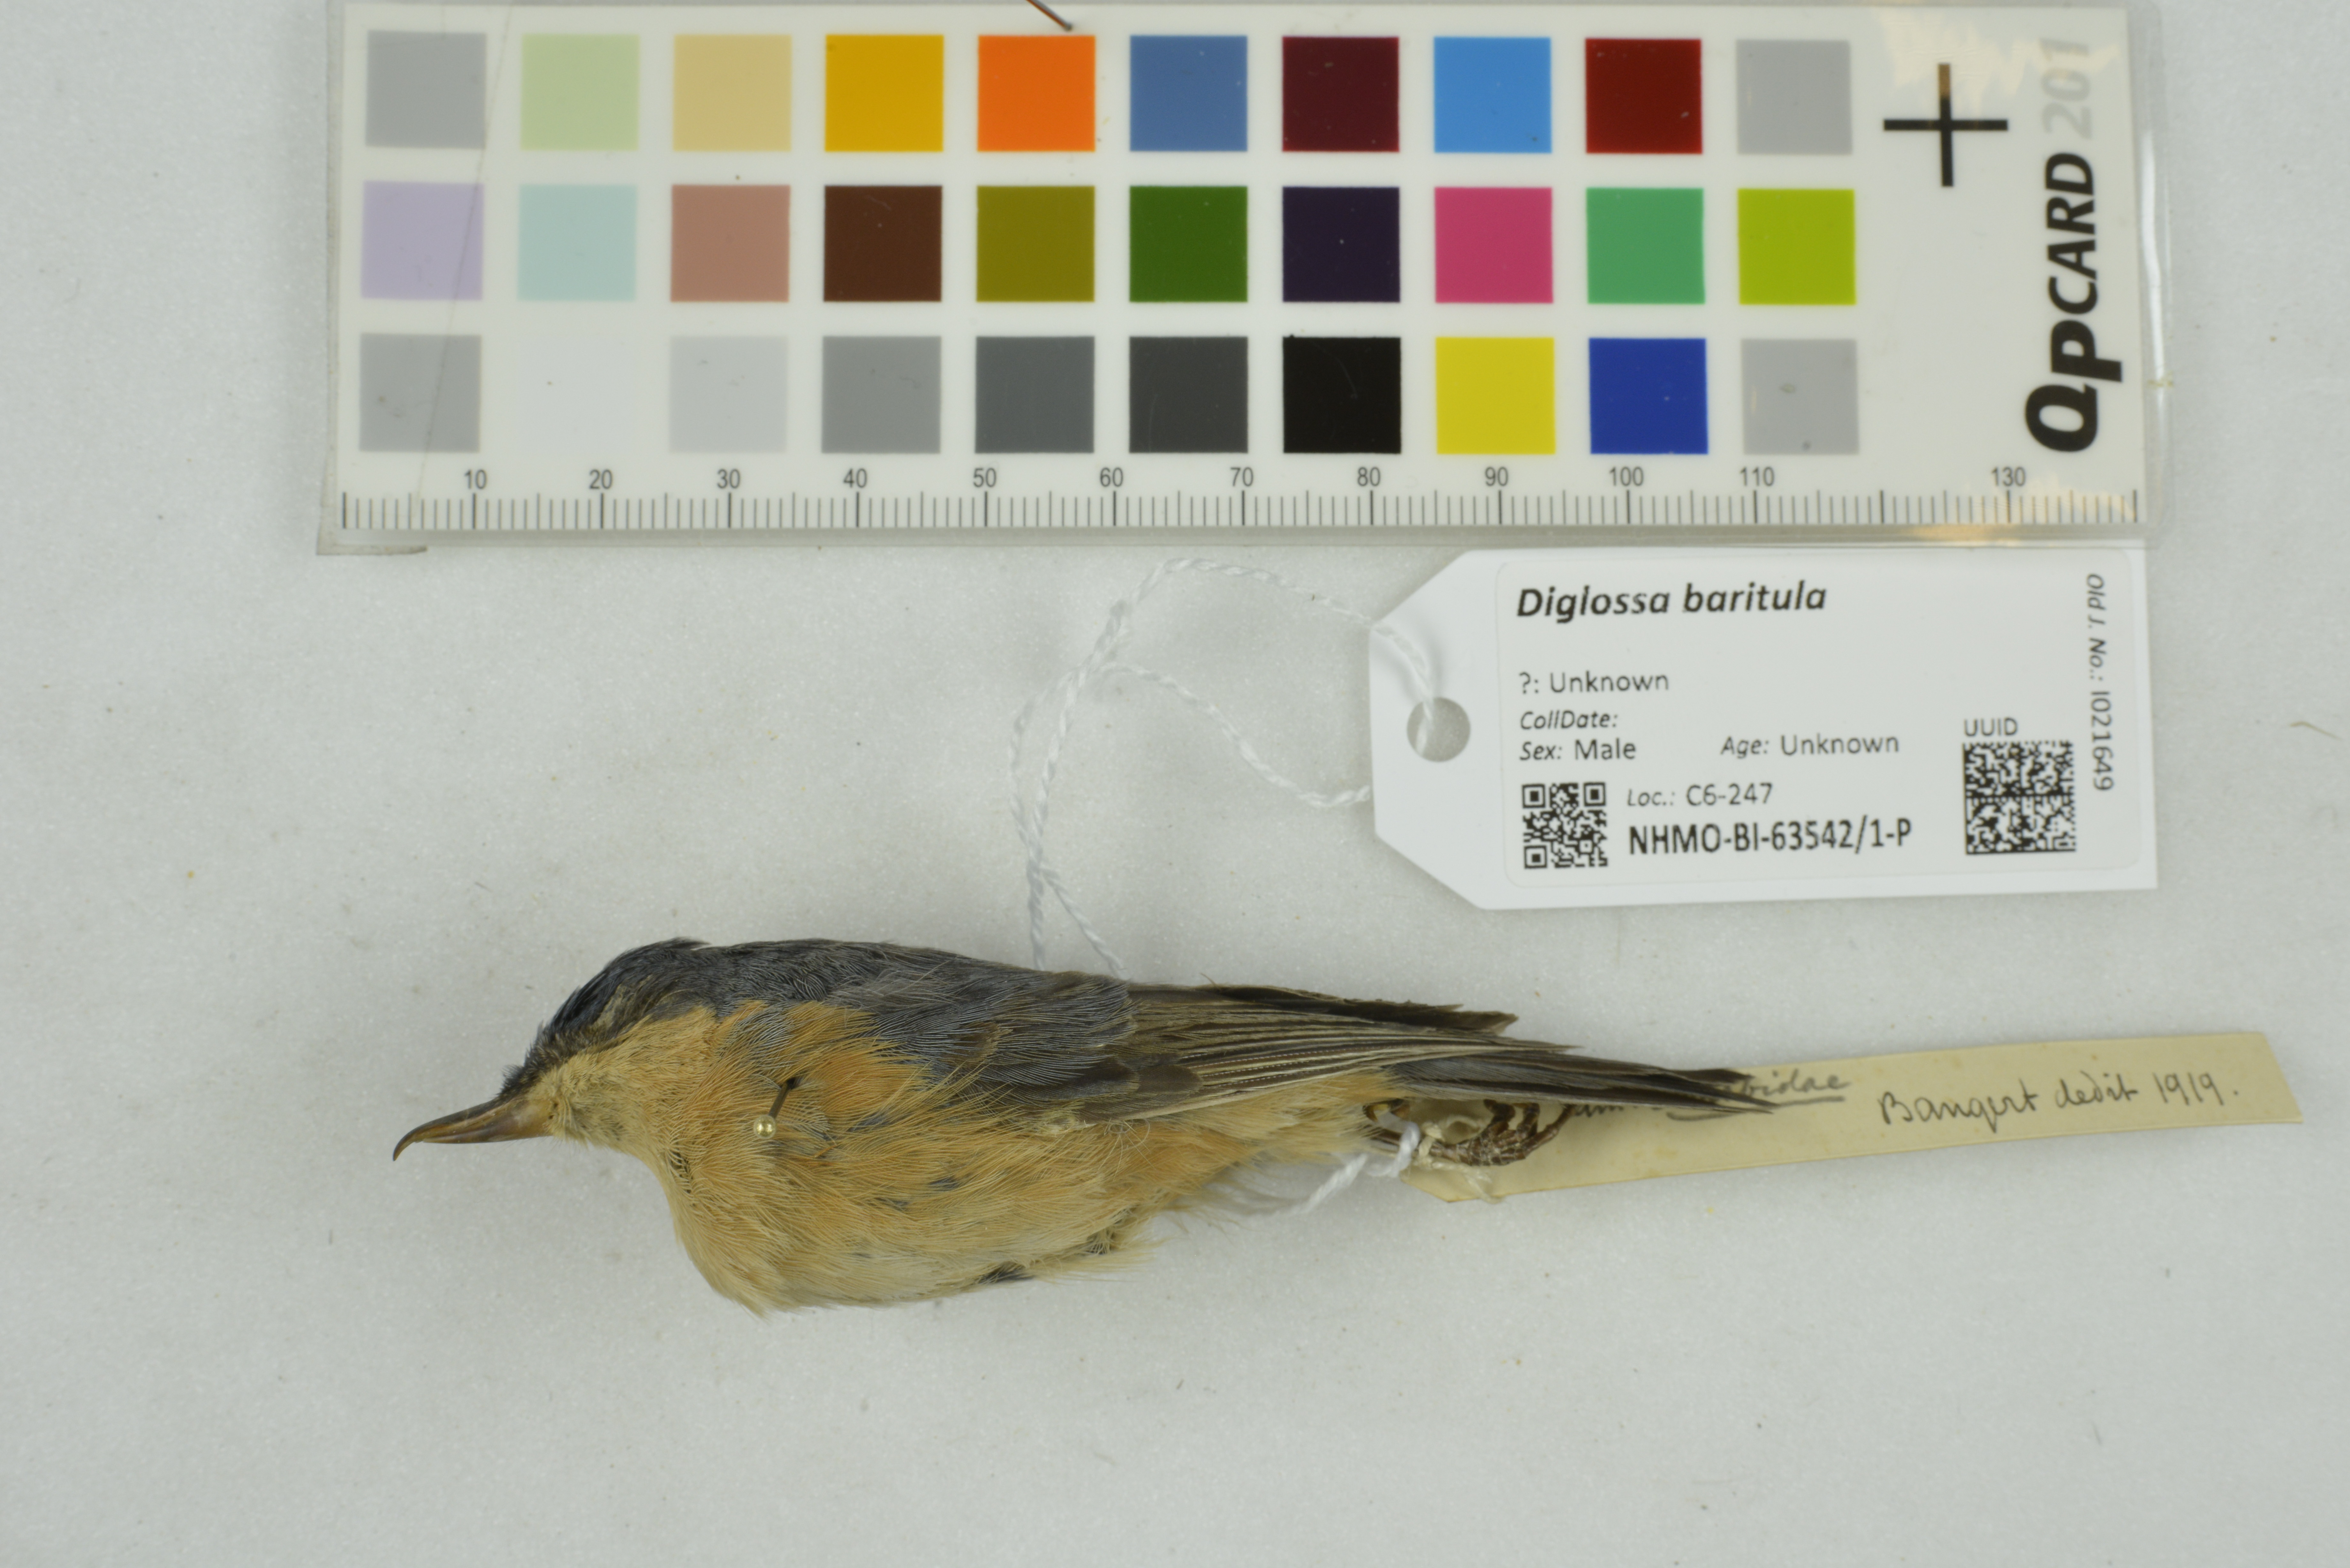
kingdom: Animalia
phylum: Chordata
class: Aves
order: Passeriformes
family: Thraupidae
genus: Diglossa
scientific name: Diglossa baritula
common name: Cinnamon-bellied flowerpiercer
